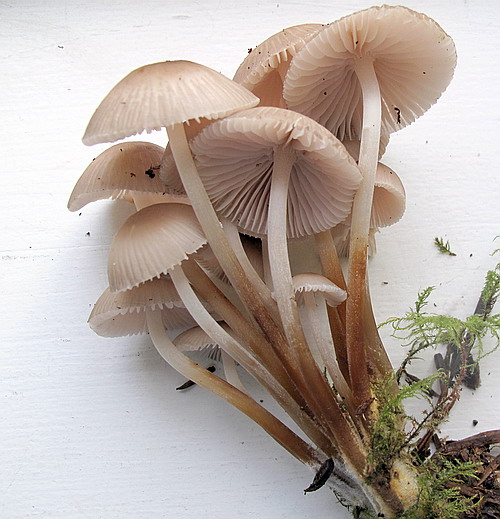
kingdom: Fungi
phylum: Basidiomycota
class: Agaricomycetes
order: Agaricales
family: Mycenaceae
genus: Mycena
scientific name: Mycena inclinata
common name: nikkende huesvamp
